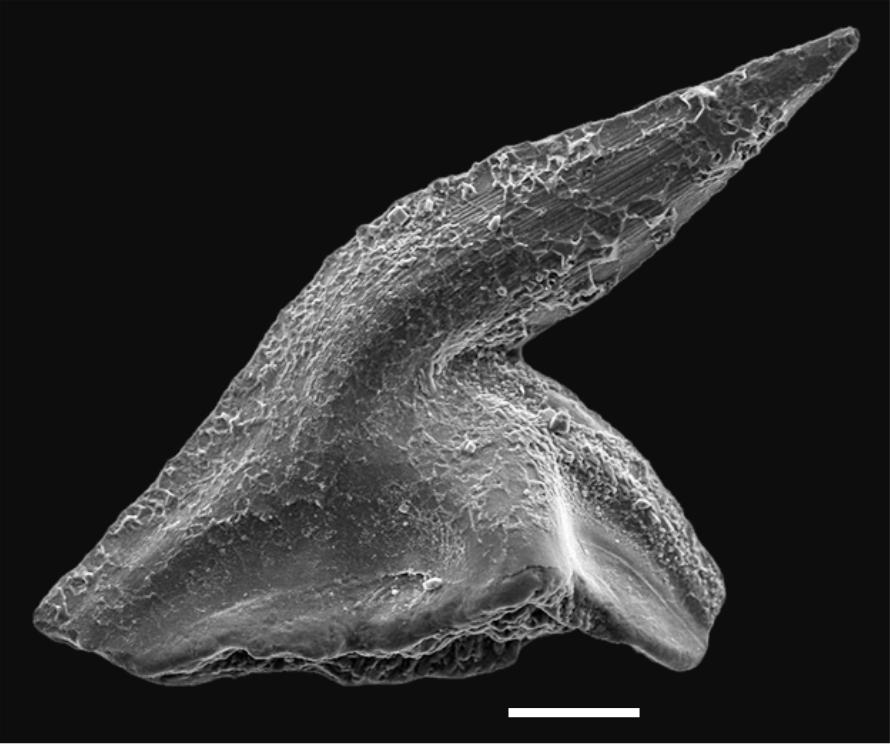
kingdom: Animalia
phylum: Chordata
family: Balognathidae
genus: Baltoniodus
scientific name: Baltoniodus Prioniodus variabilis
